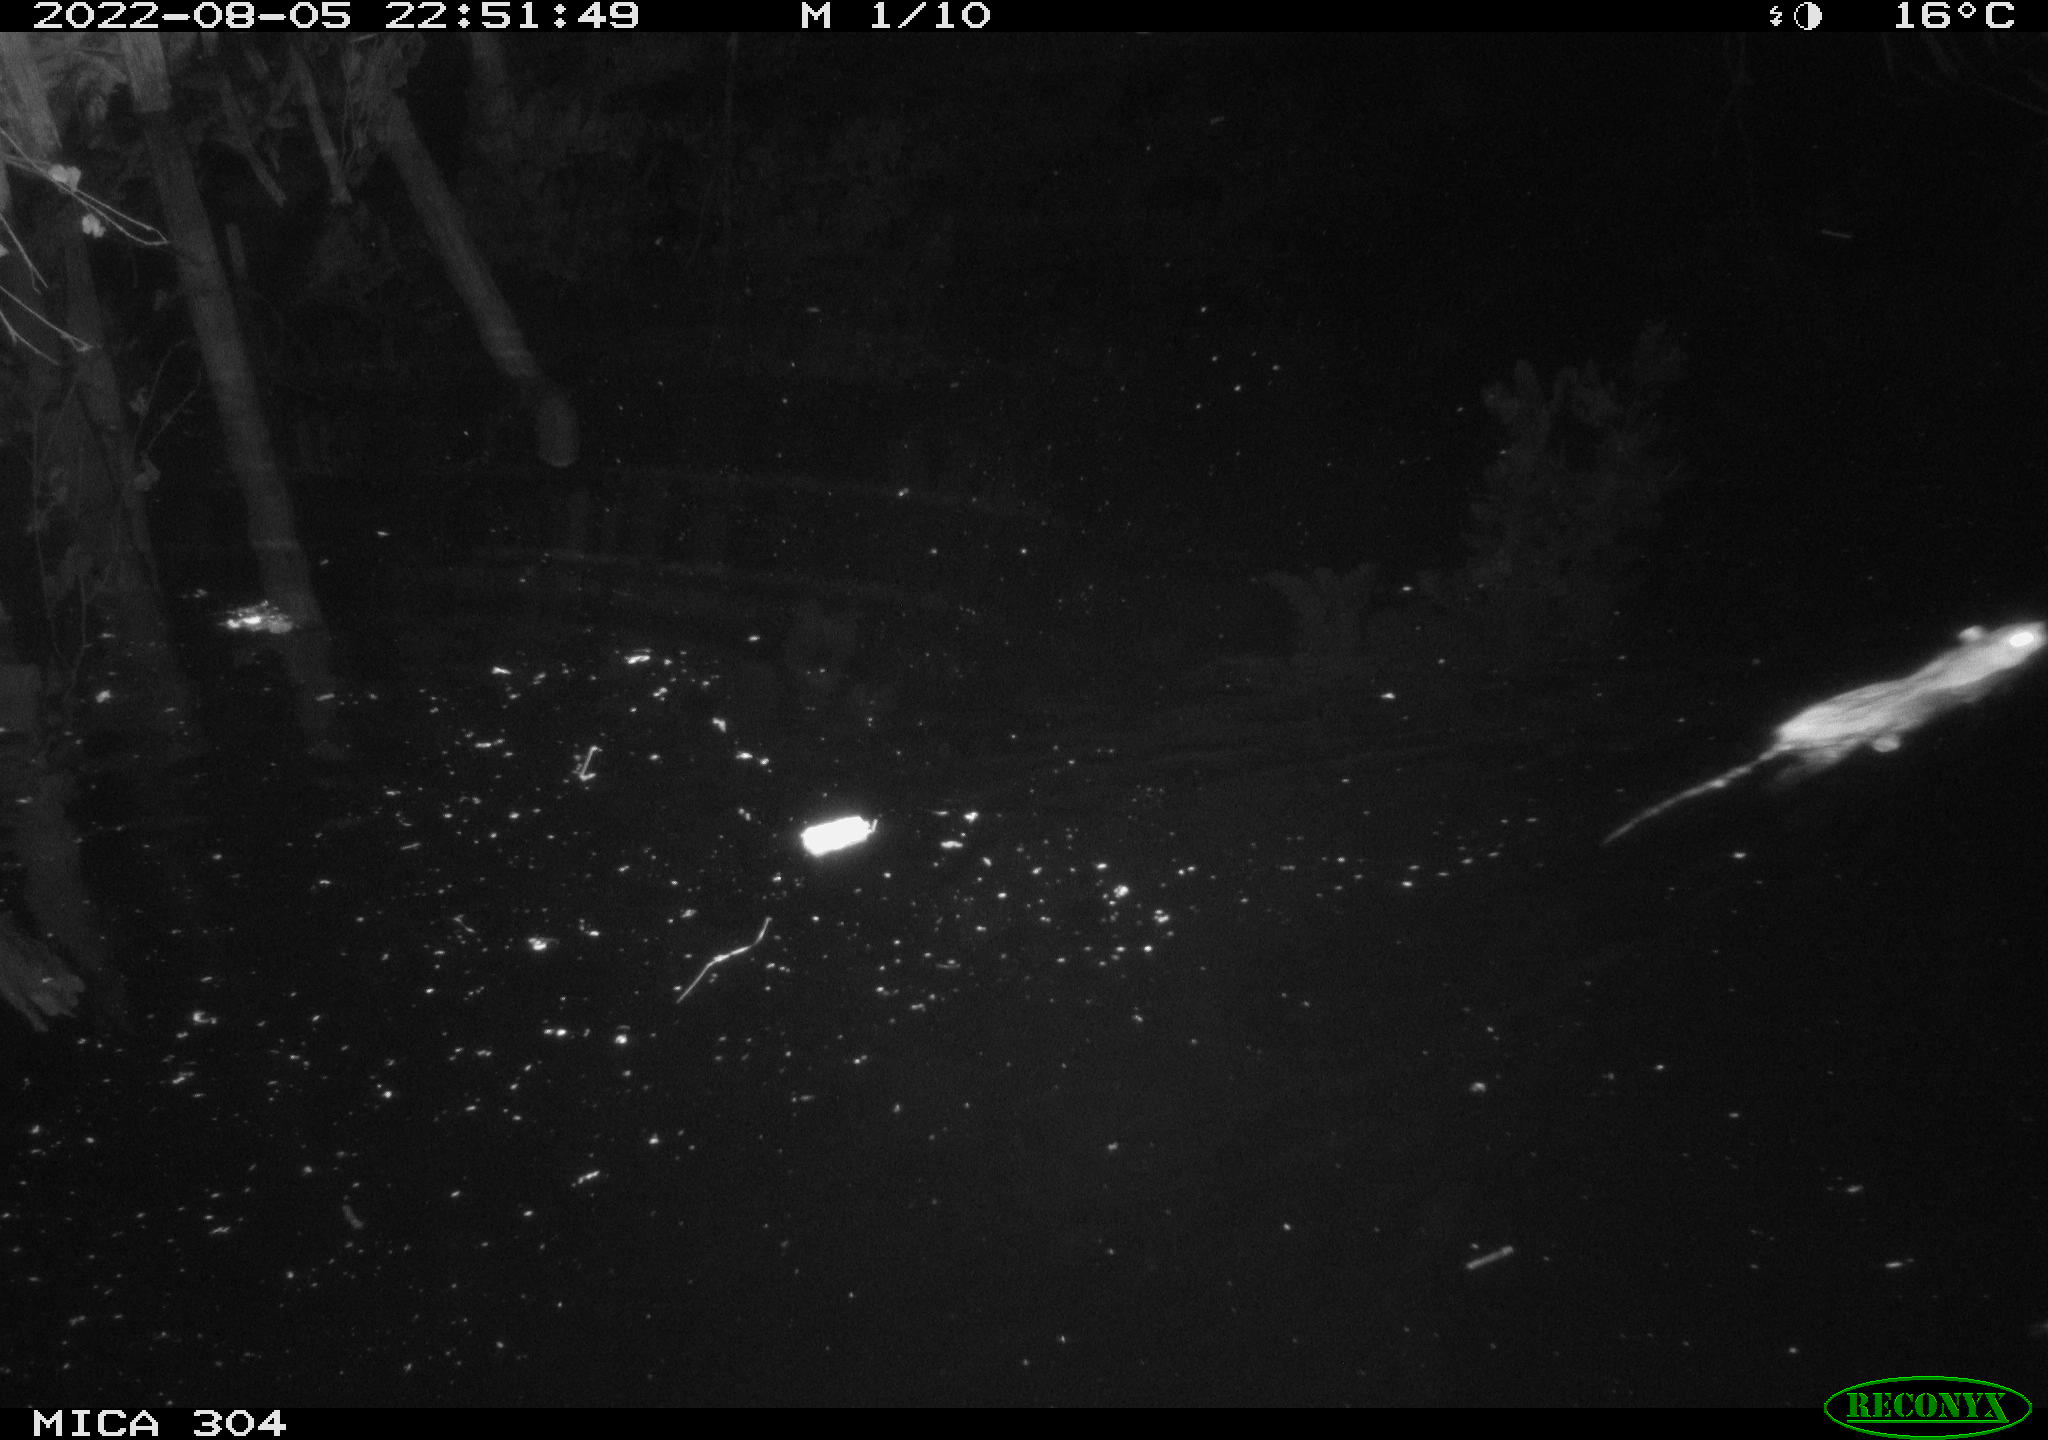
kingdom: Animalia
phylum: Chordata
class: Mammalia
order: Rodentia
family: Muridae
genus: Rattus
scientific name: Rattus norvegicus
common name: Brown rat
